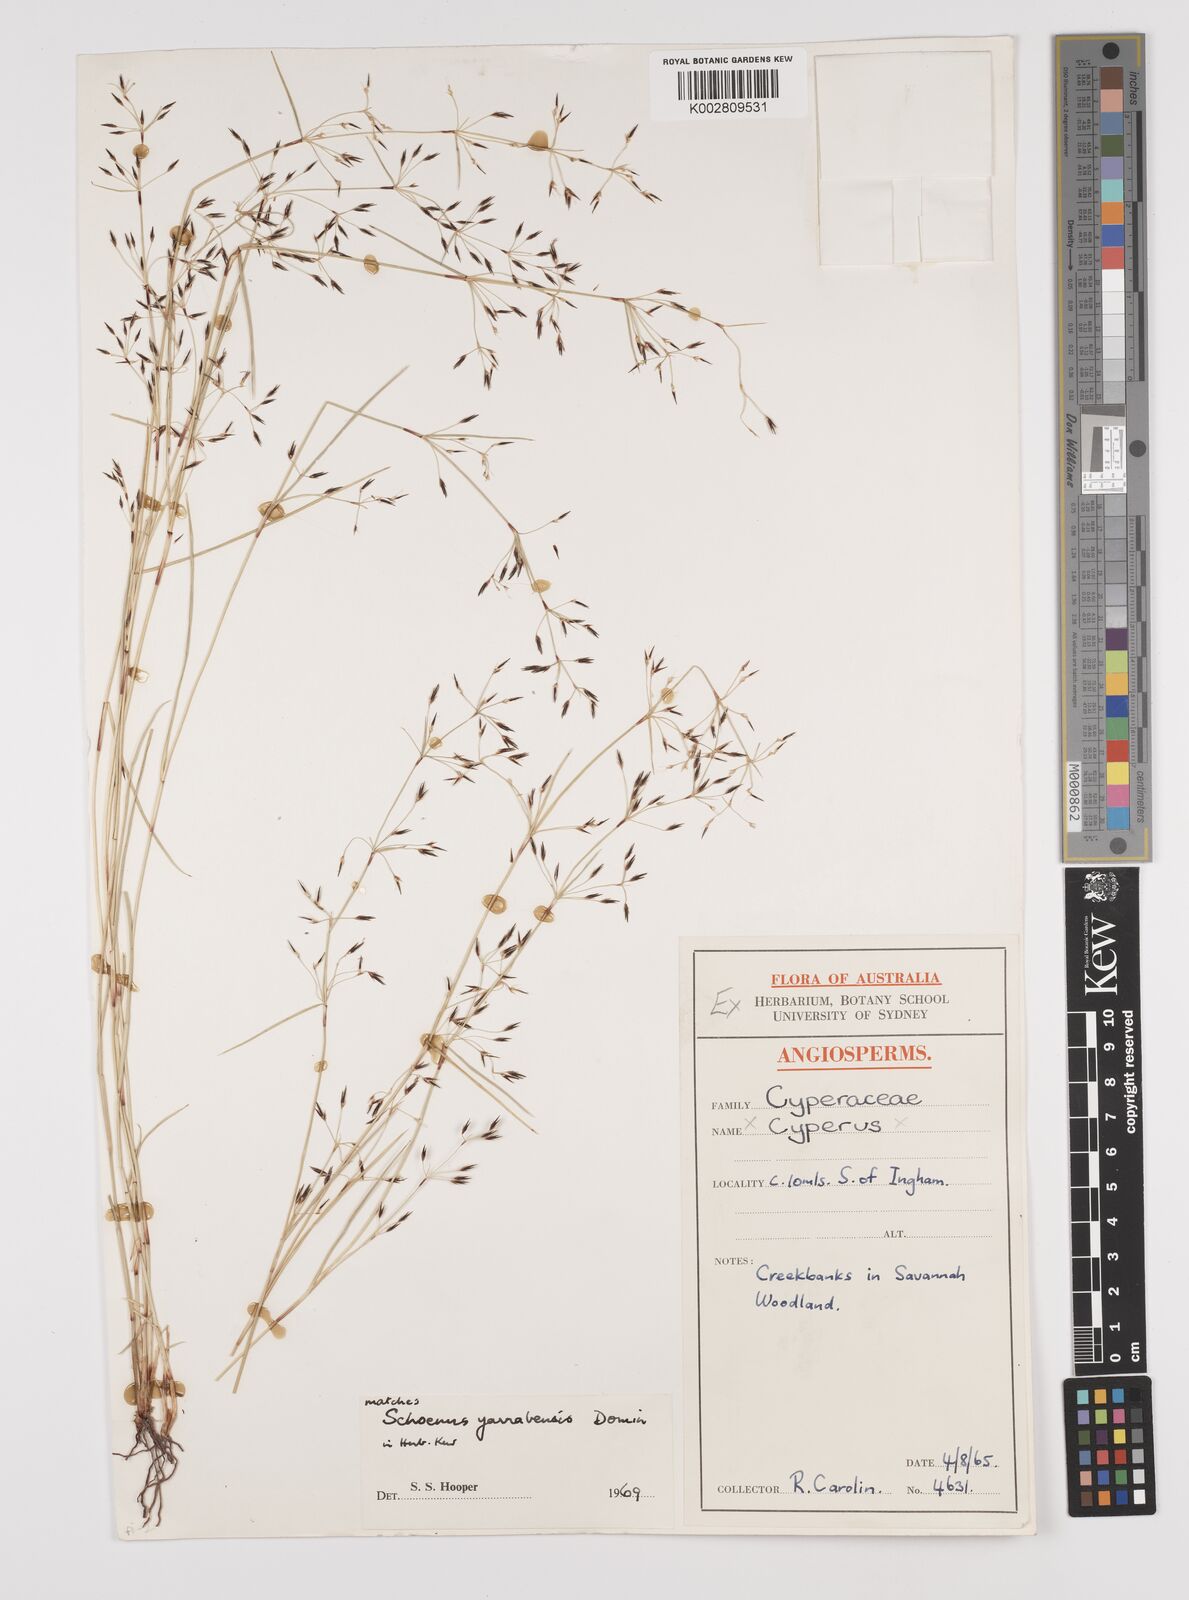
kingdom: Plantae
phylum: Tracheophyta
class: Liliopsida
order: Poales
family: Cyperaceae
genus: Schoenus
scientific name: Schoenus yarrabensis
